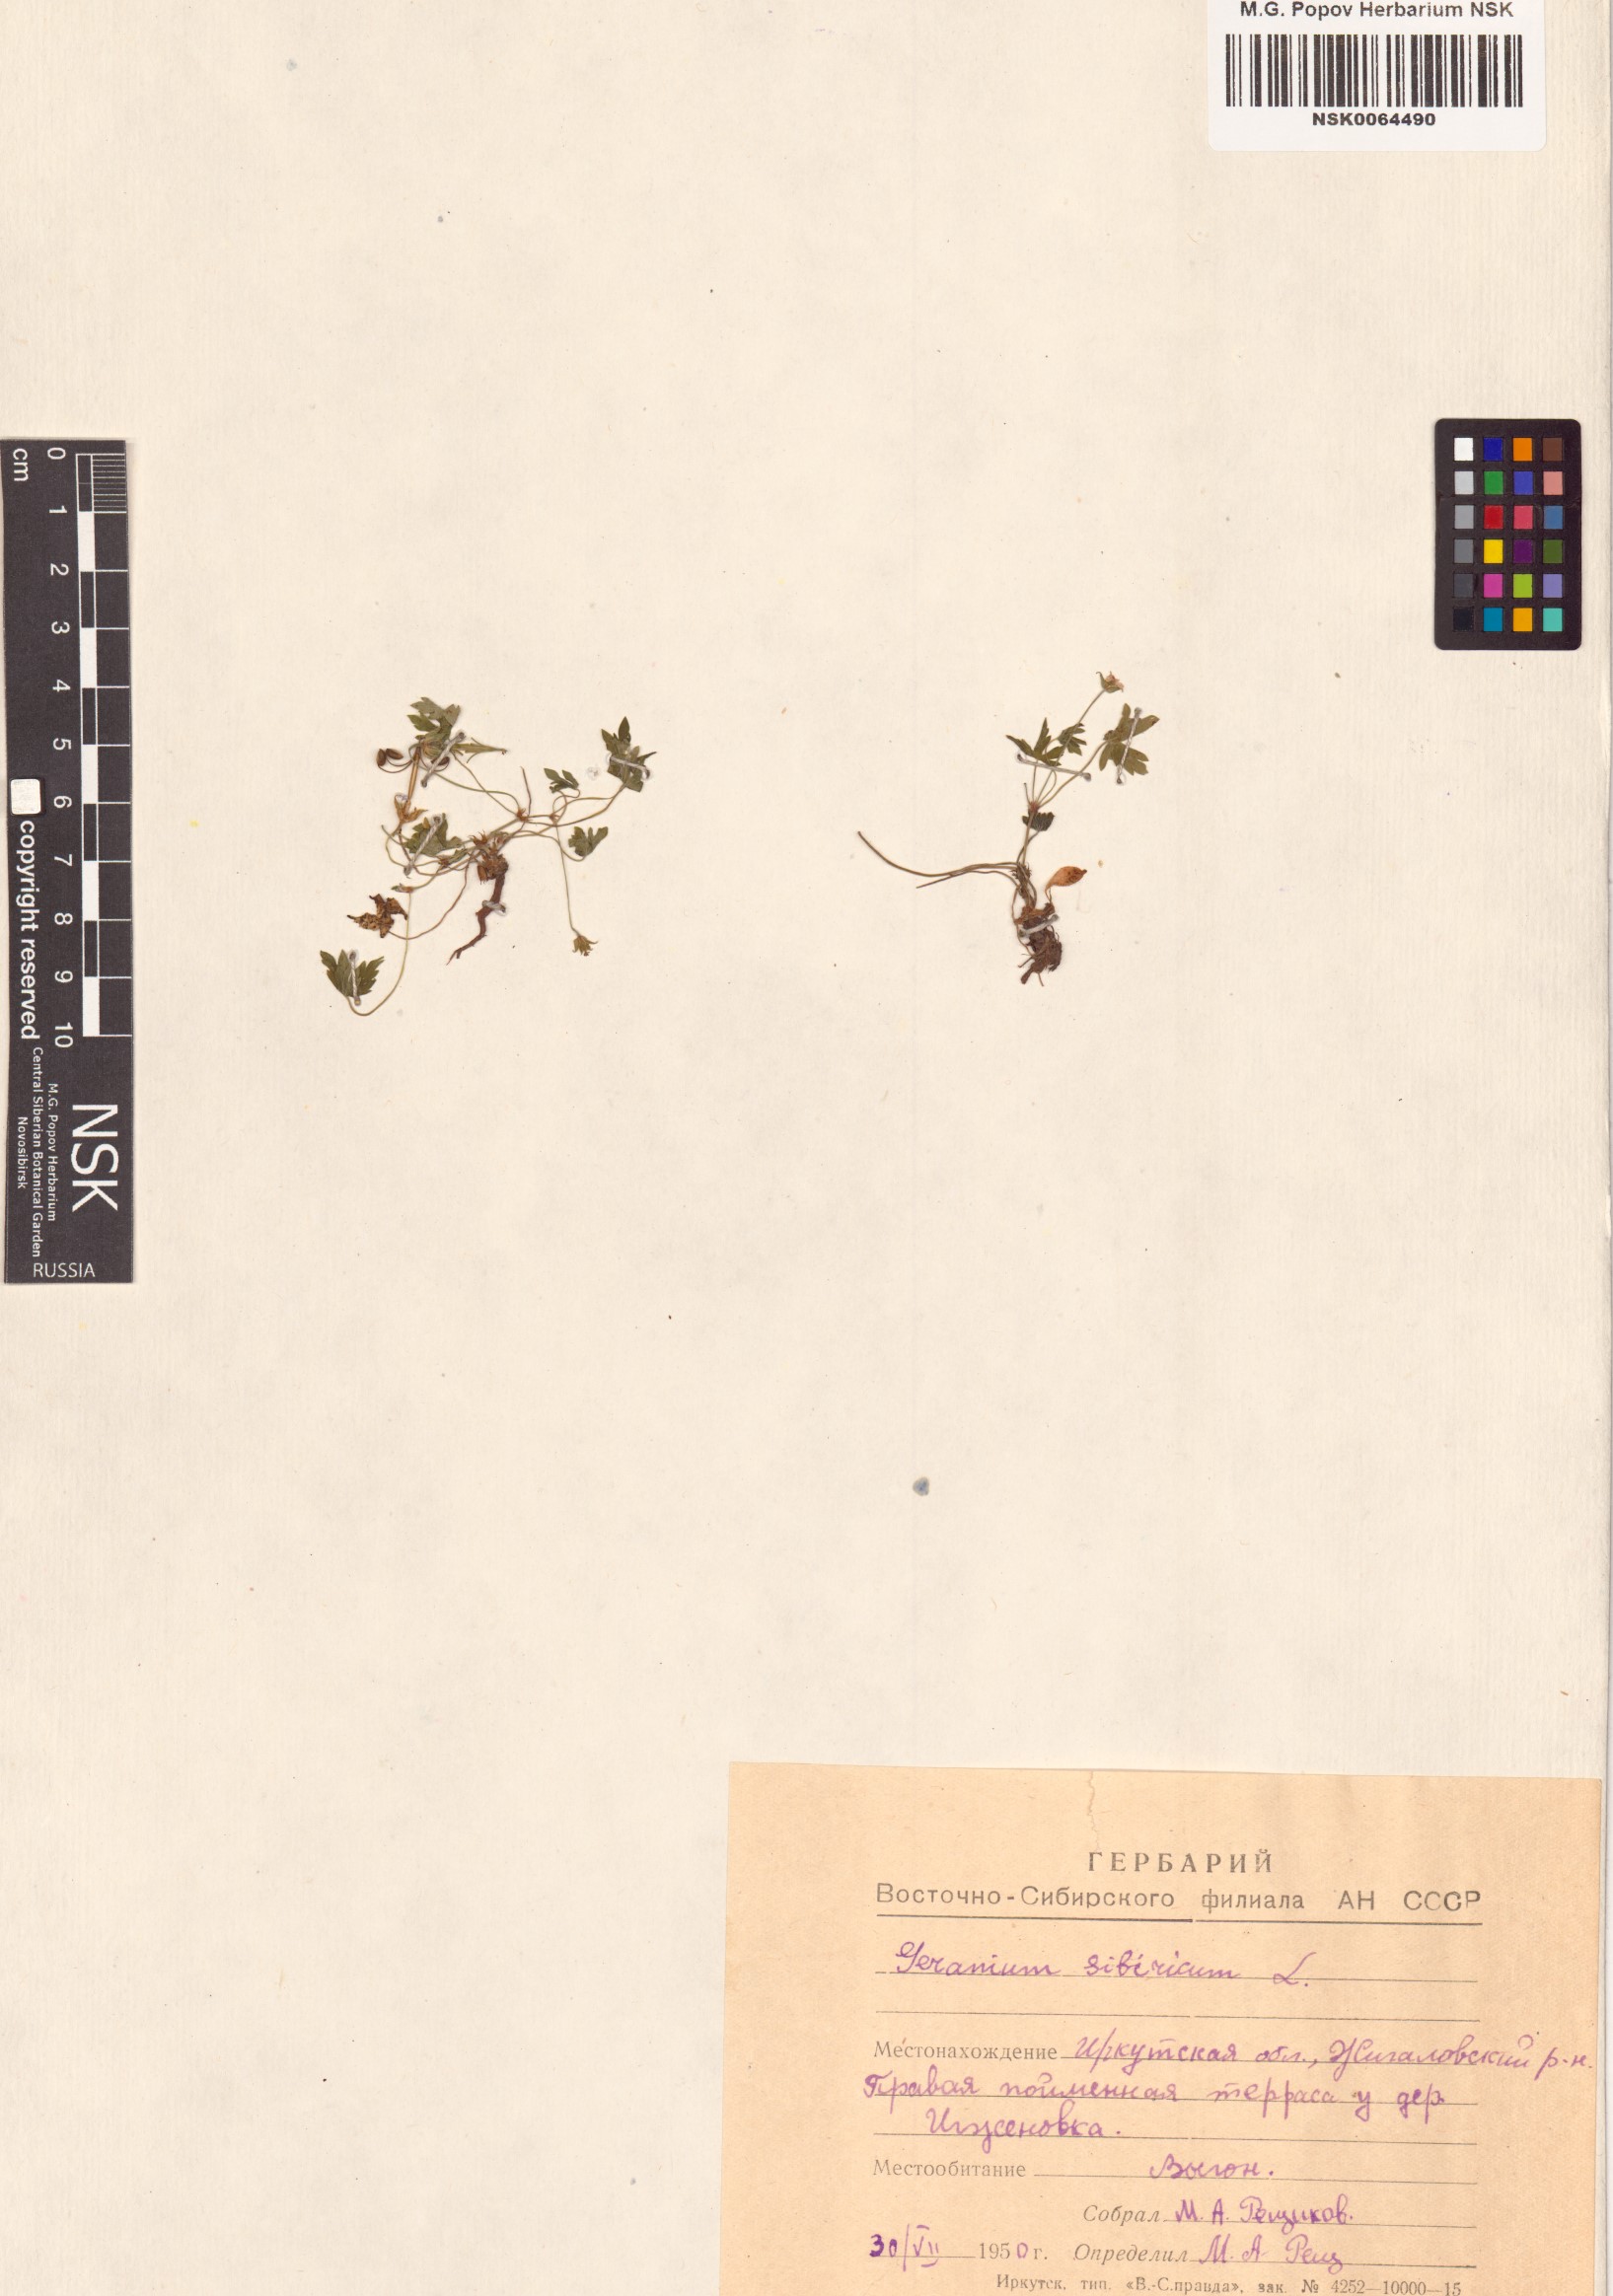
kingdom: Plantae
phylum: Tracheophyta
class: Magnoliopsida
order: Geraniales
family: Geraniaceae
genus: Geranium
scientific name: Geranium sibiricum
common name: Siberian crane's-bill
